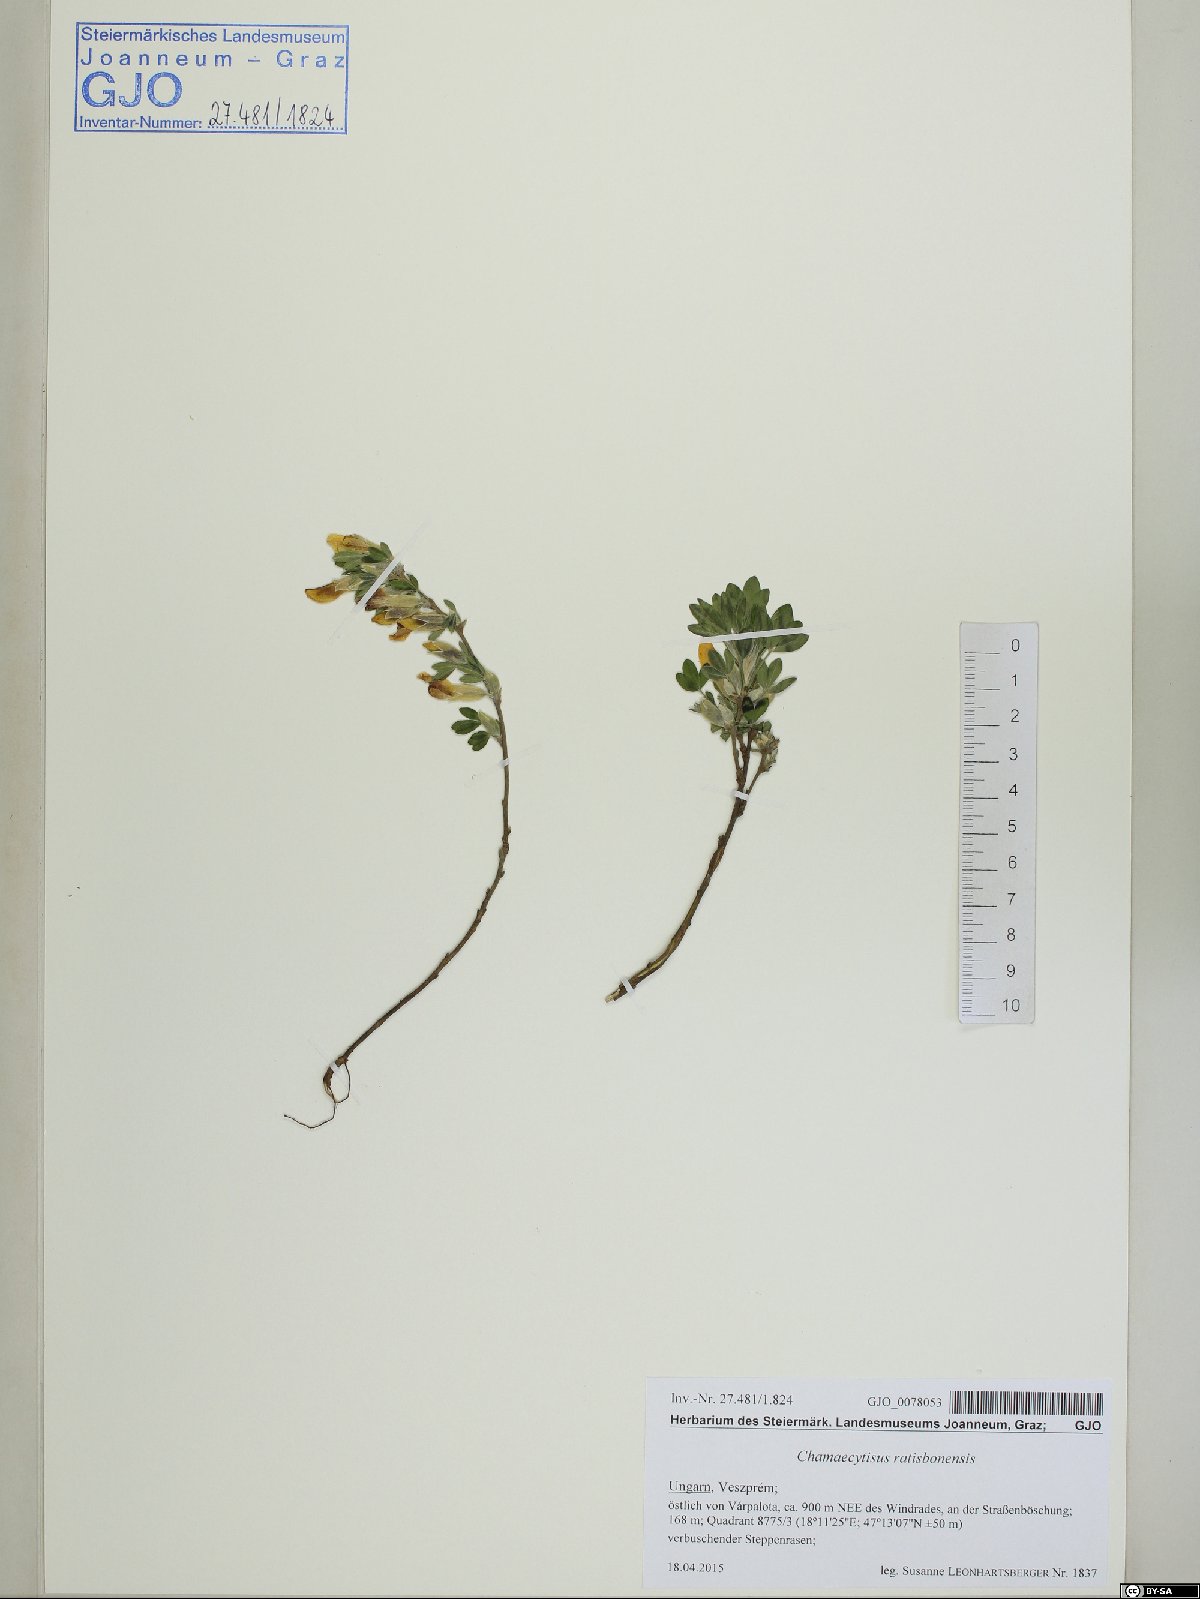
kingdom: Plantae
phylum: Tracheophyta
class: Magnoliopsida
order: Fabales
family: Fabaceae
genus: Chamaecytisus
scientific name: Chamaecytisus ratisbonensis
